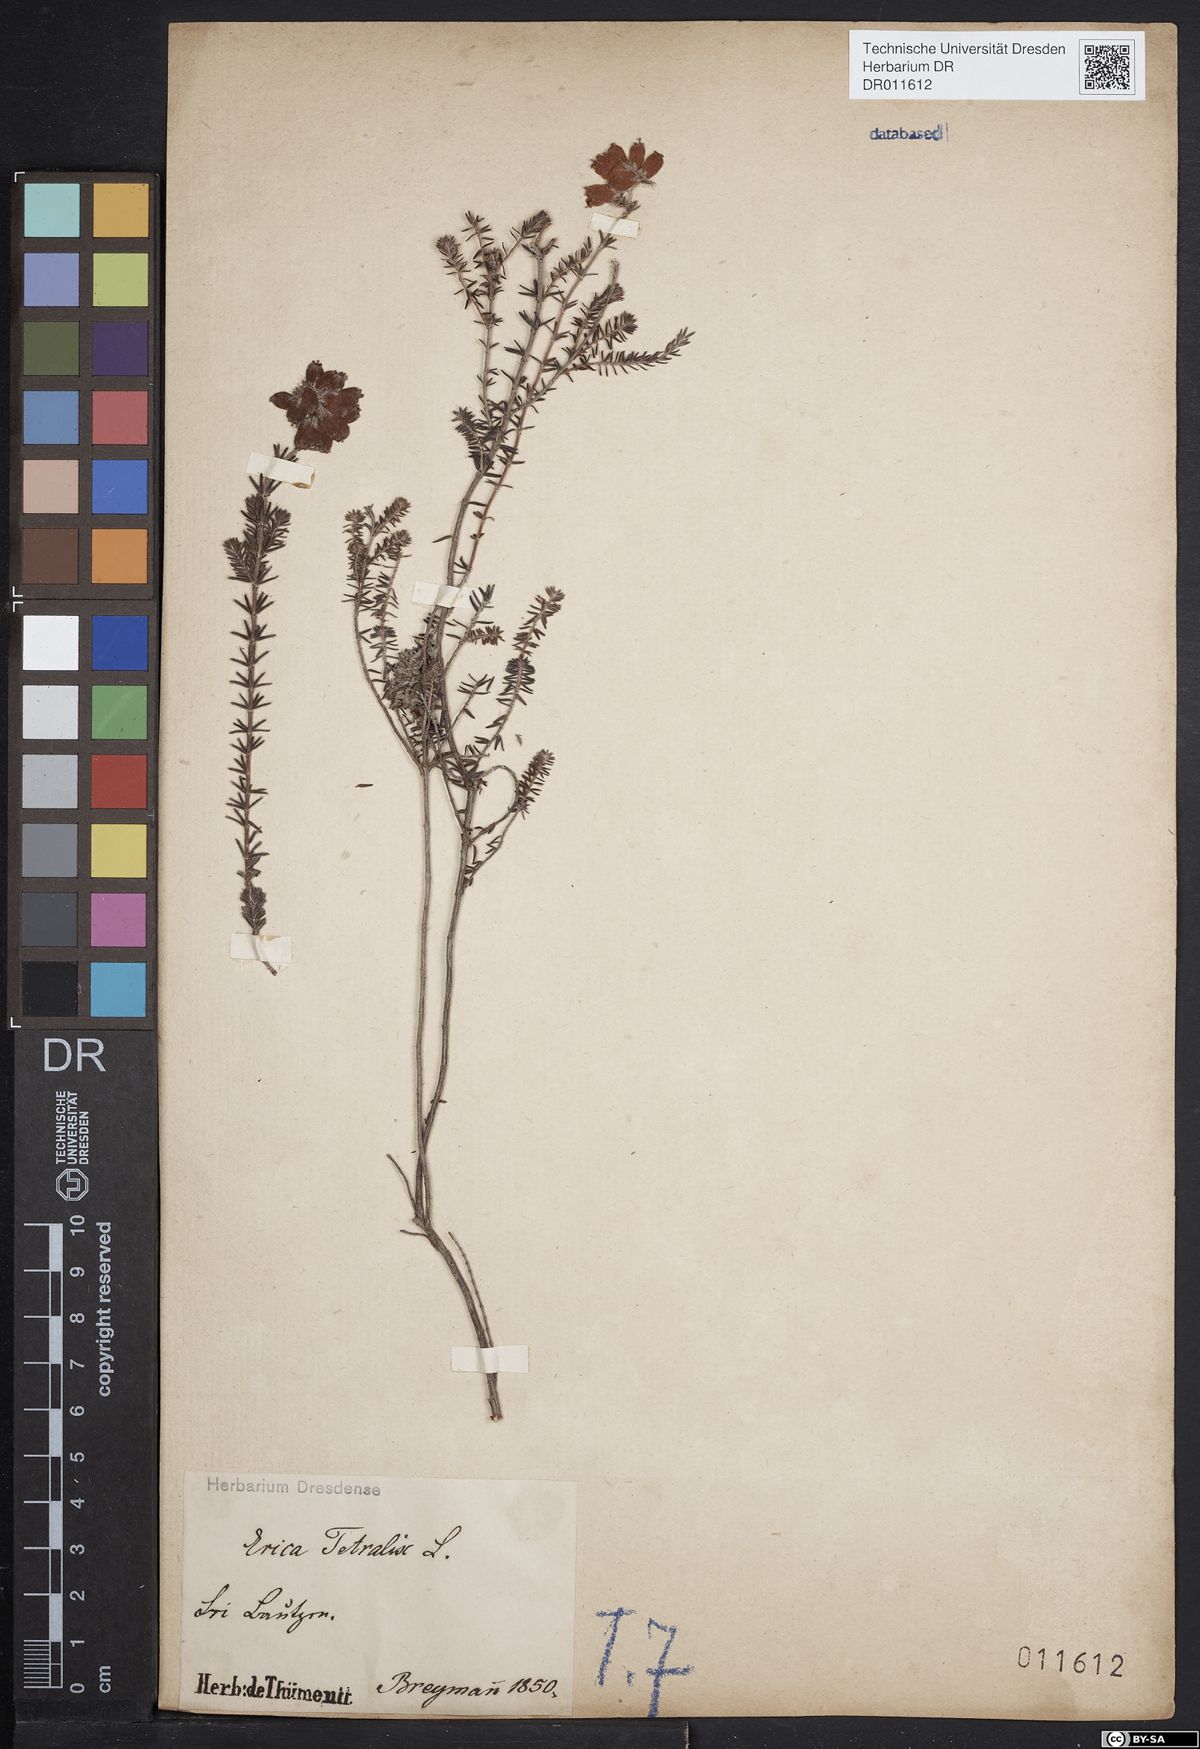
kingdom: Plantae
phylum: Tracheophyta
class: Magnoliopsida
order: Ericales
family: Ericaceae
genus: Erica
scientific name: Erica tetralix
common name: Cross-leaved heath
